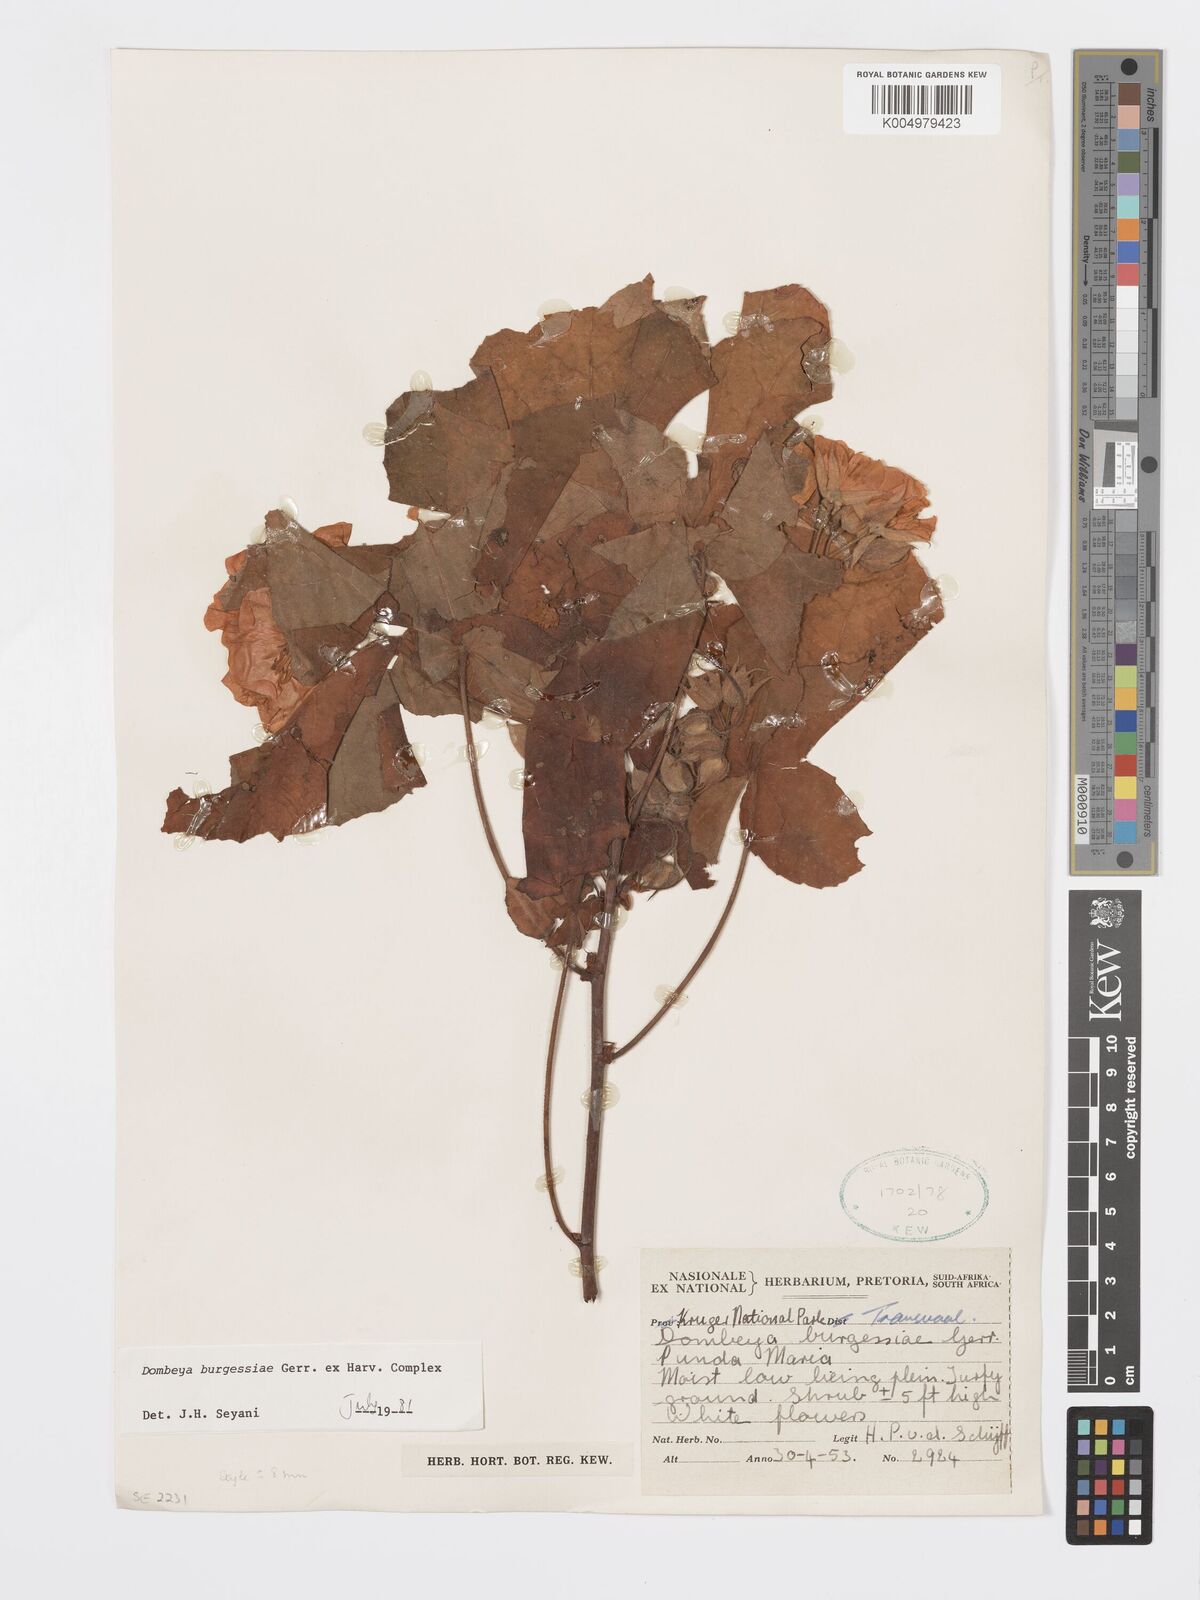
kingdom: Plantae
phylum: Tracheophyta
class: Magnoliopsida
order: Malvales
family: Malvaceae
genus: Dombeya
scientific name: Dombeya burgessiae
